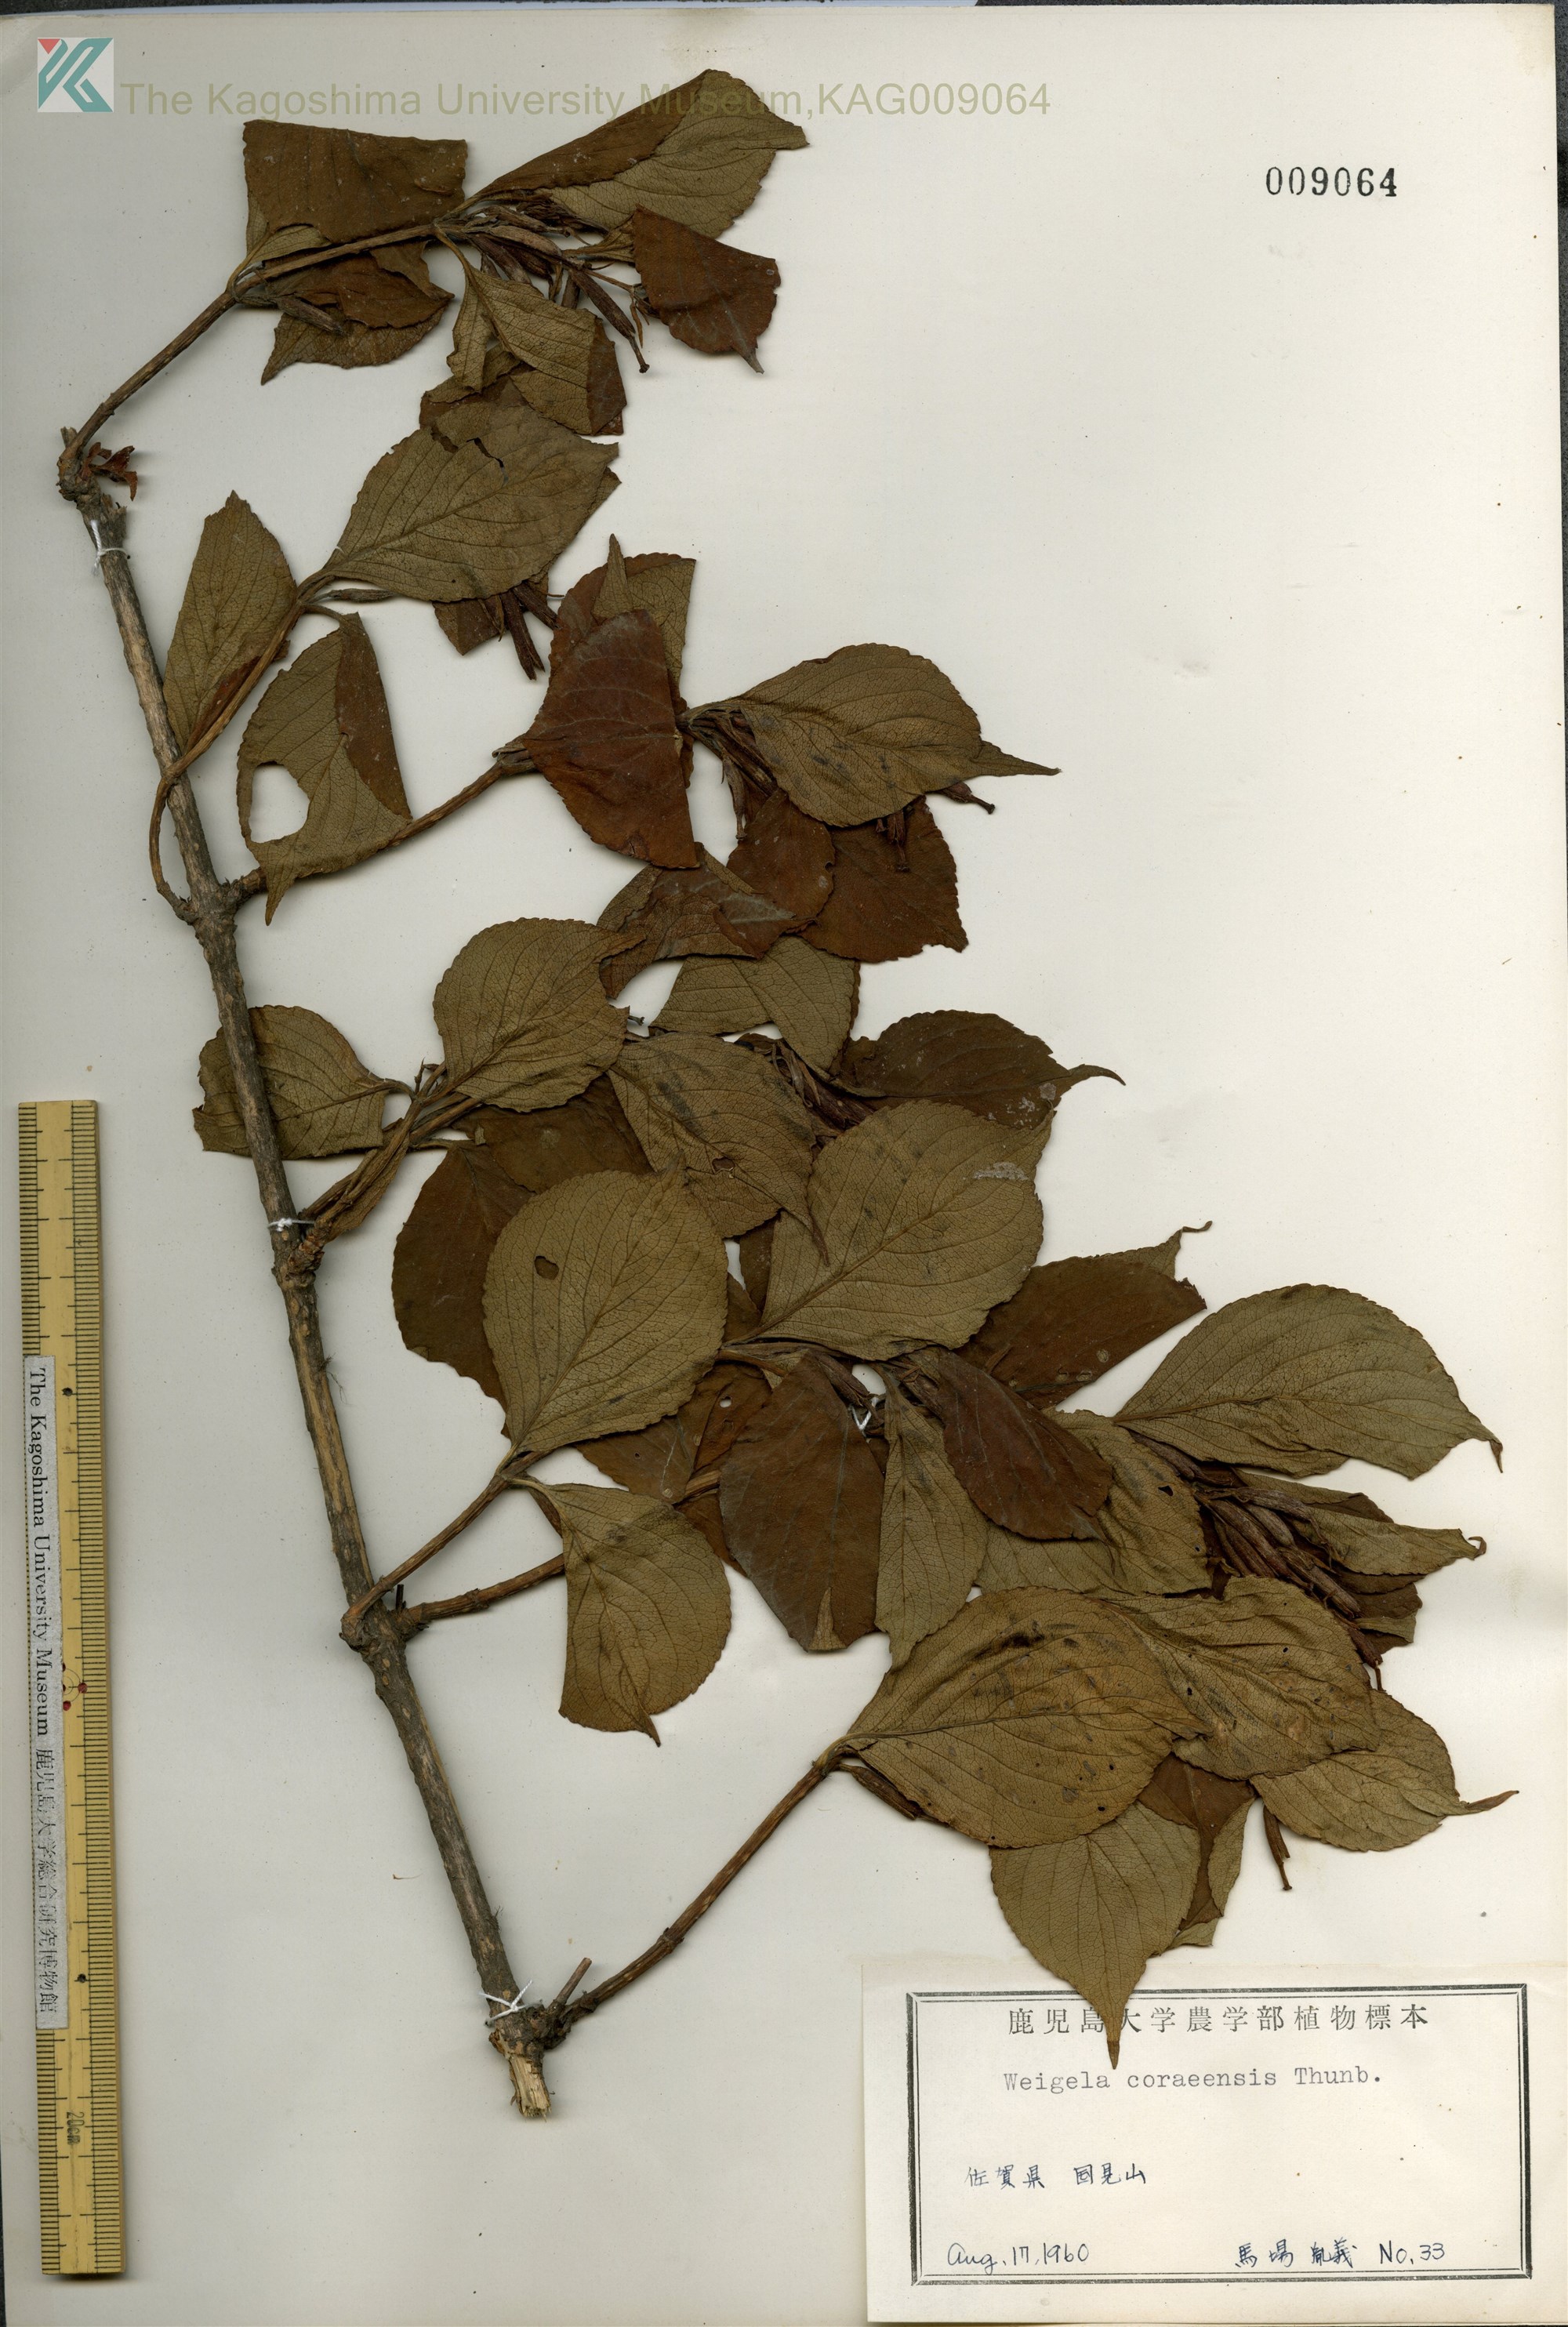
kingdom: Plantae
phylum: Tracheophyta
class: Magnoliopsida
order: Dipsacales
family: Caprifoliaceae
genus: Weigela
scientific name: Weigela
